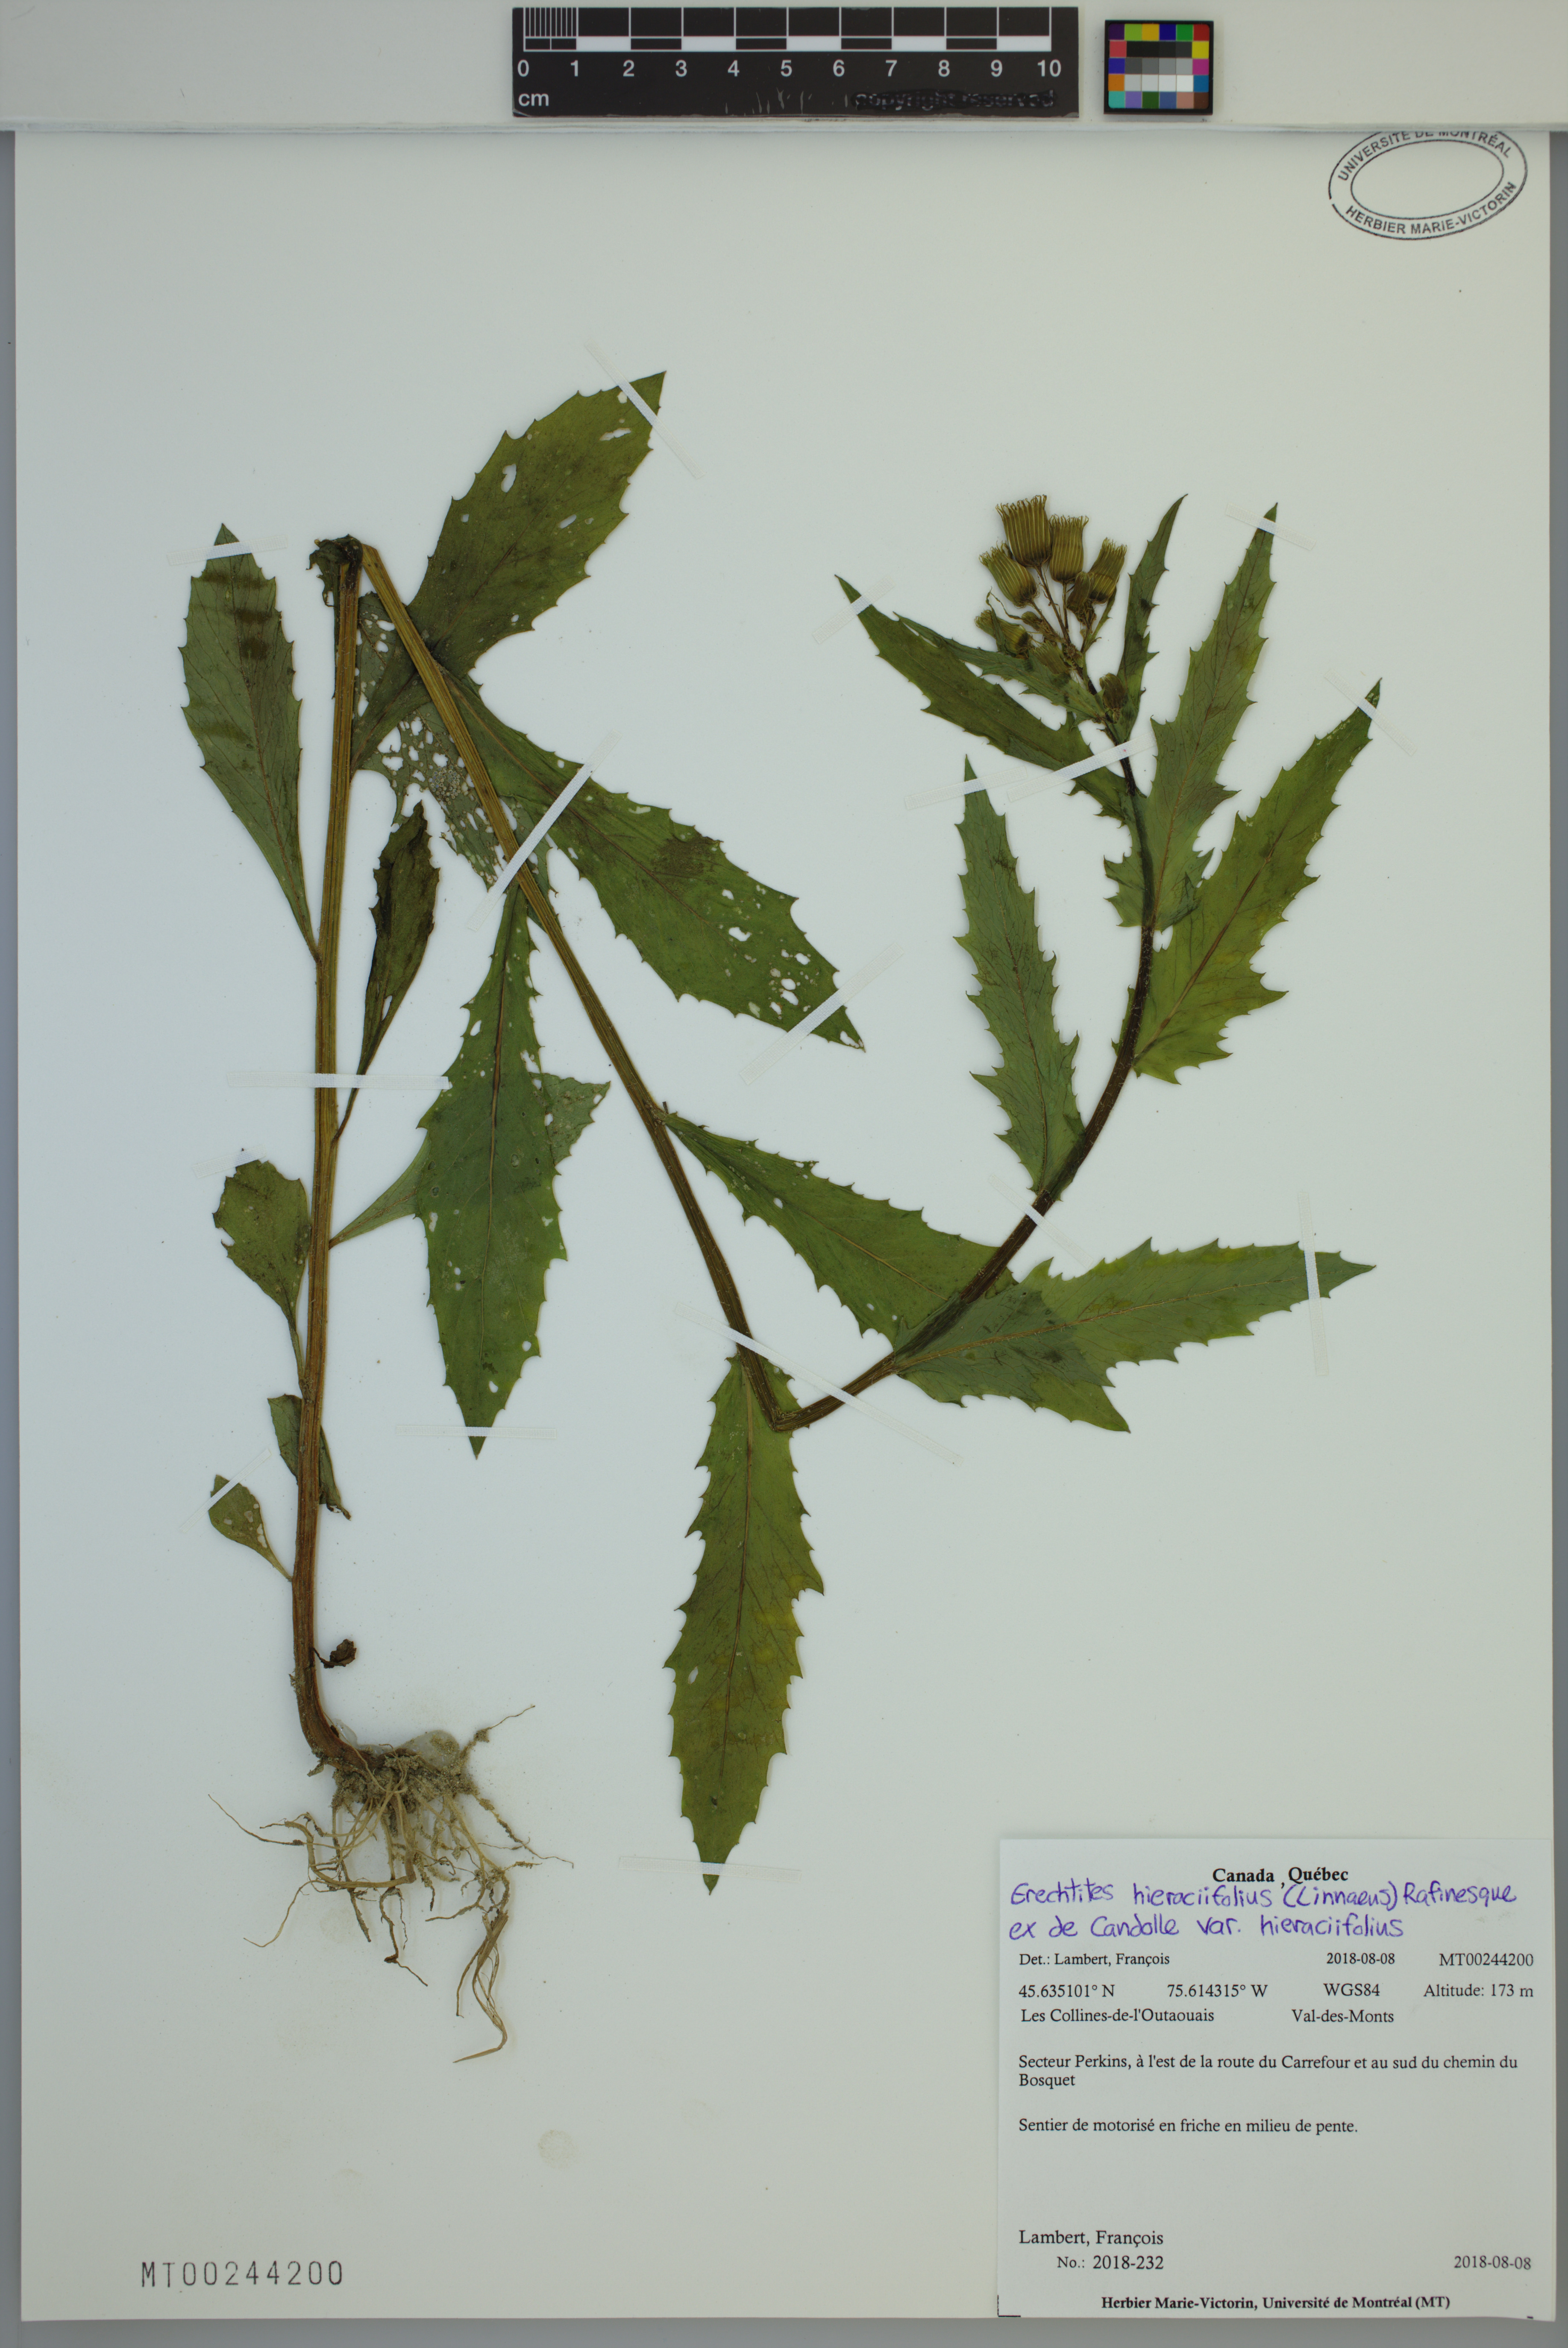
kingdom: Plantae
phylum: Tracheophyta
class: Magnoliopsida
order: Asterales
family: Asteraceae
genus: Erechtites
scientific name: Erechtites hieraciifolius
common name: American burnweed
